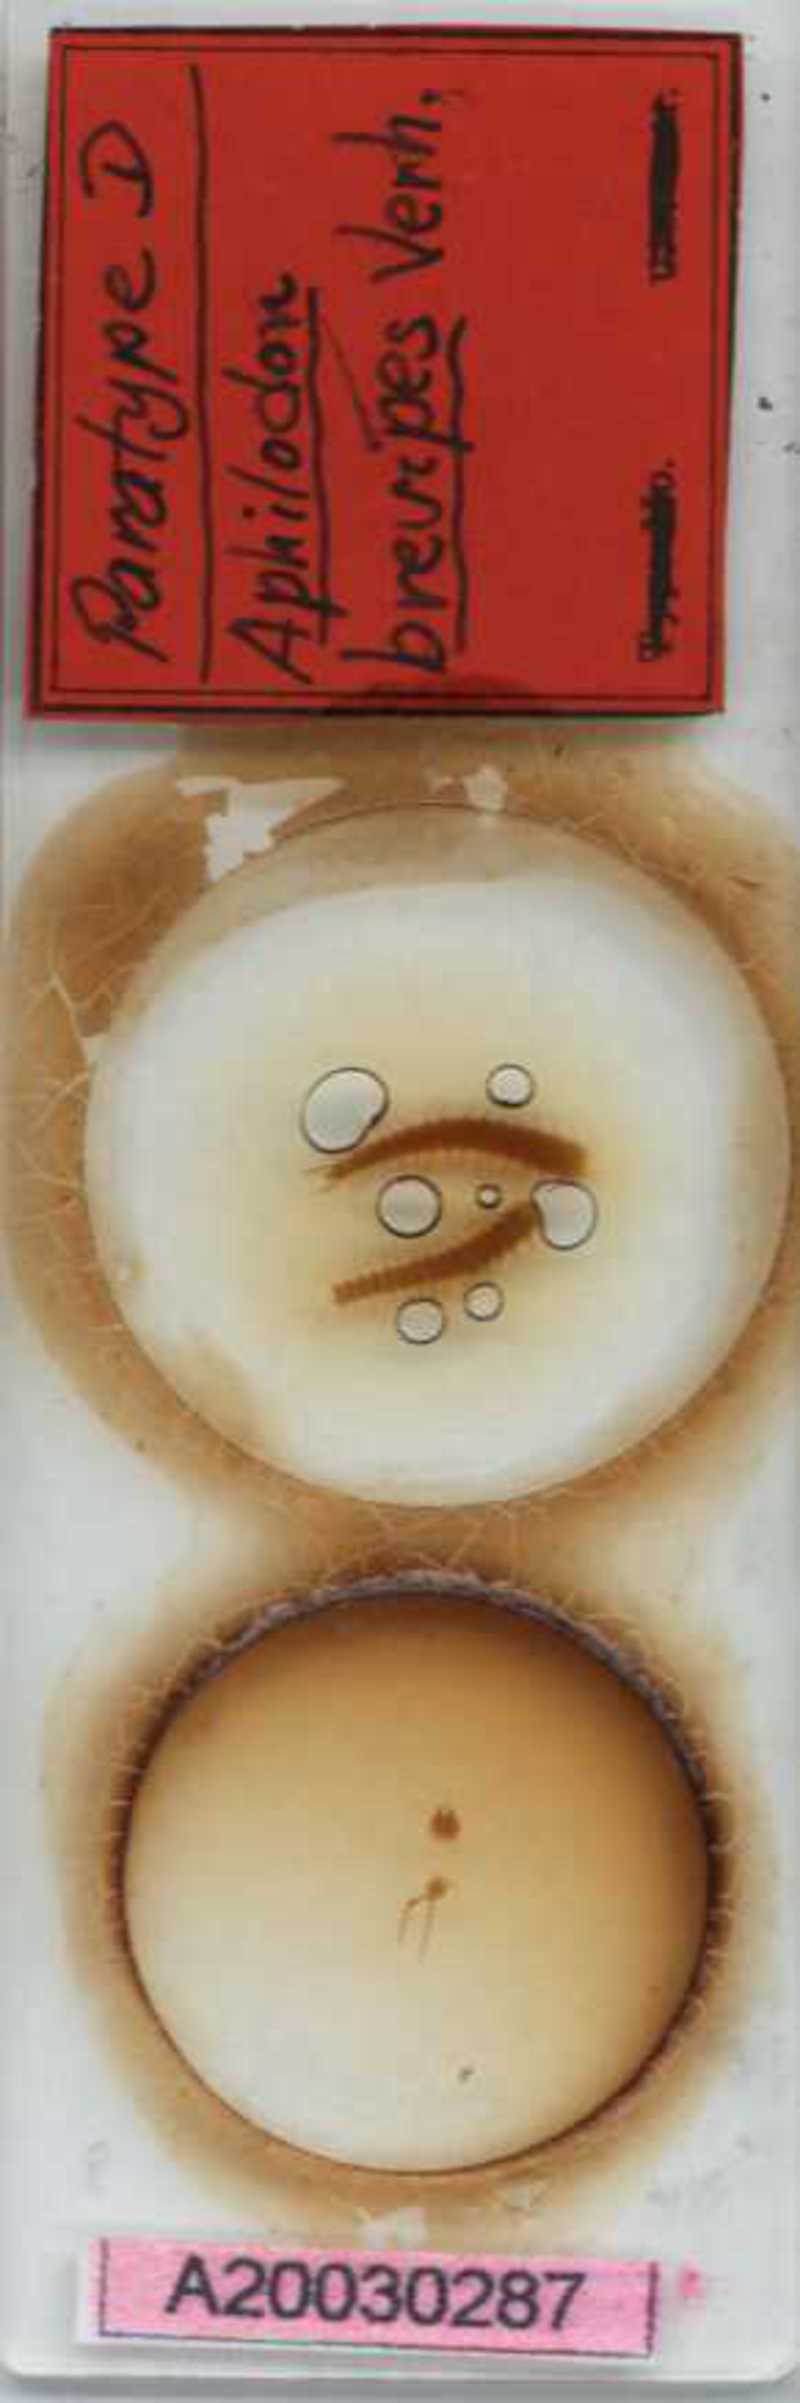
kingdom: Animalia
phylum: Arthropoda
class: Chilopoda
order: Geophilomorpha
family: Aphilodontidae
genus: Aphilodon
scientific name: Aphilodon brevipes
